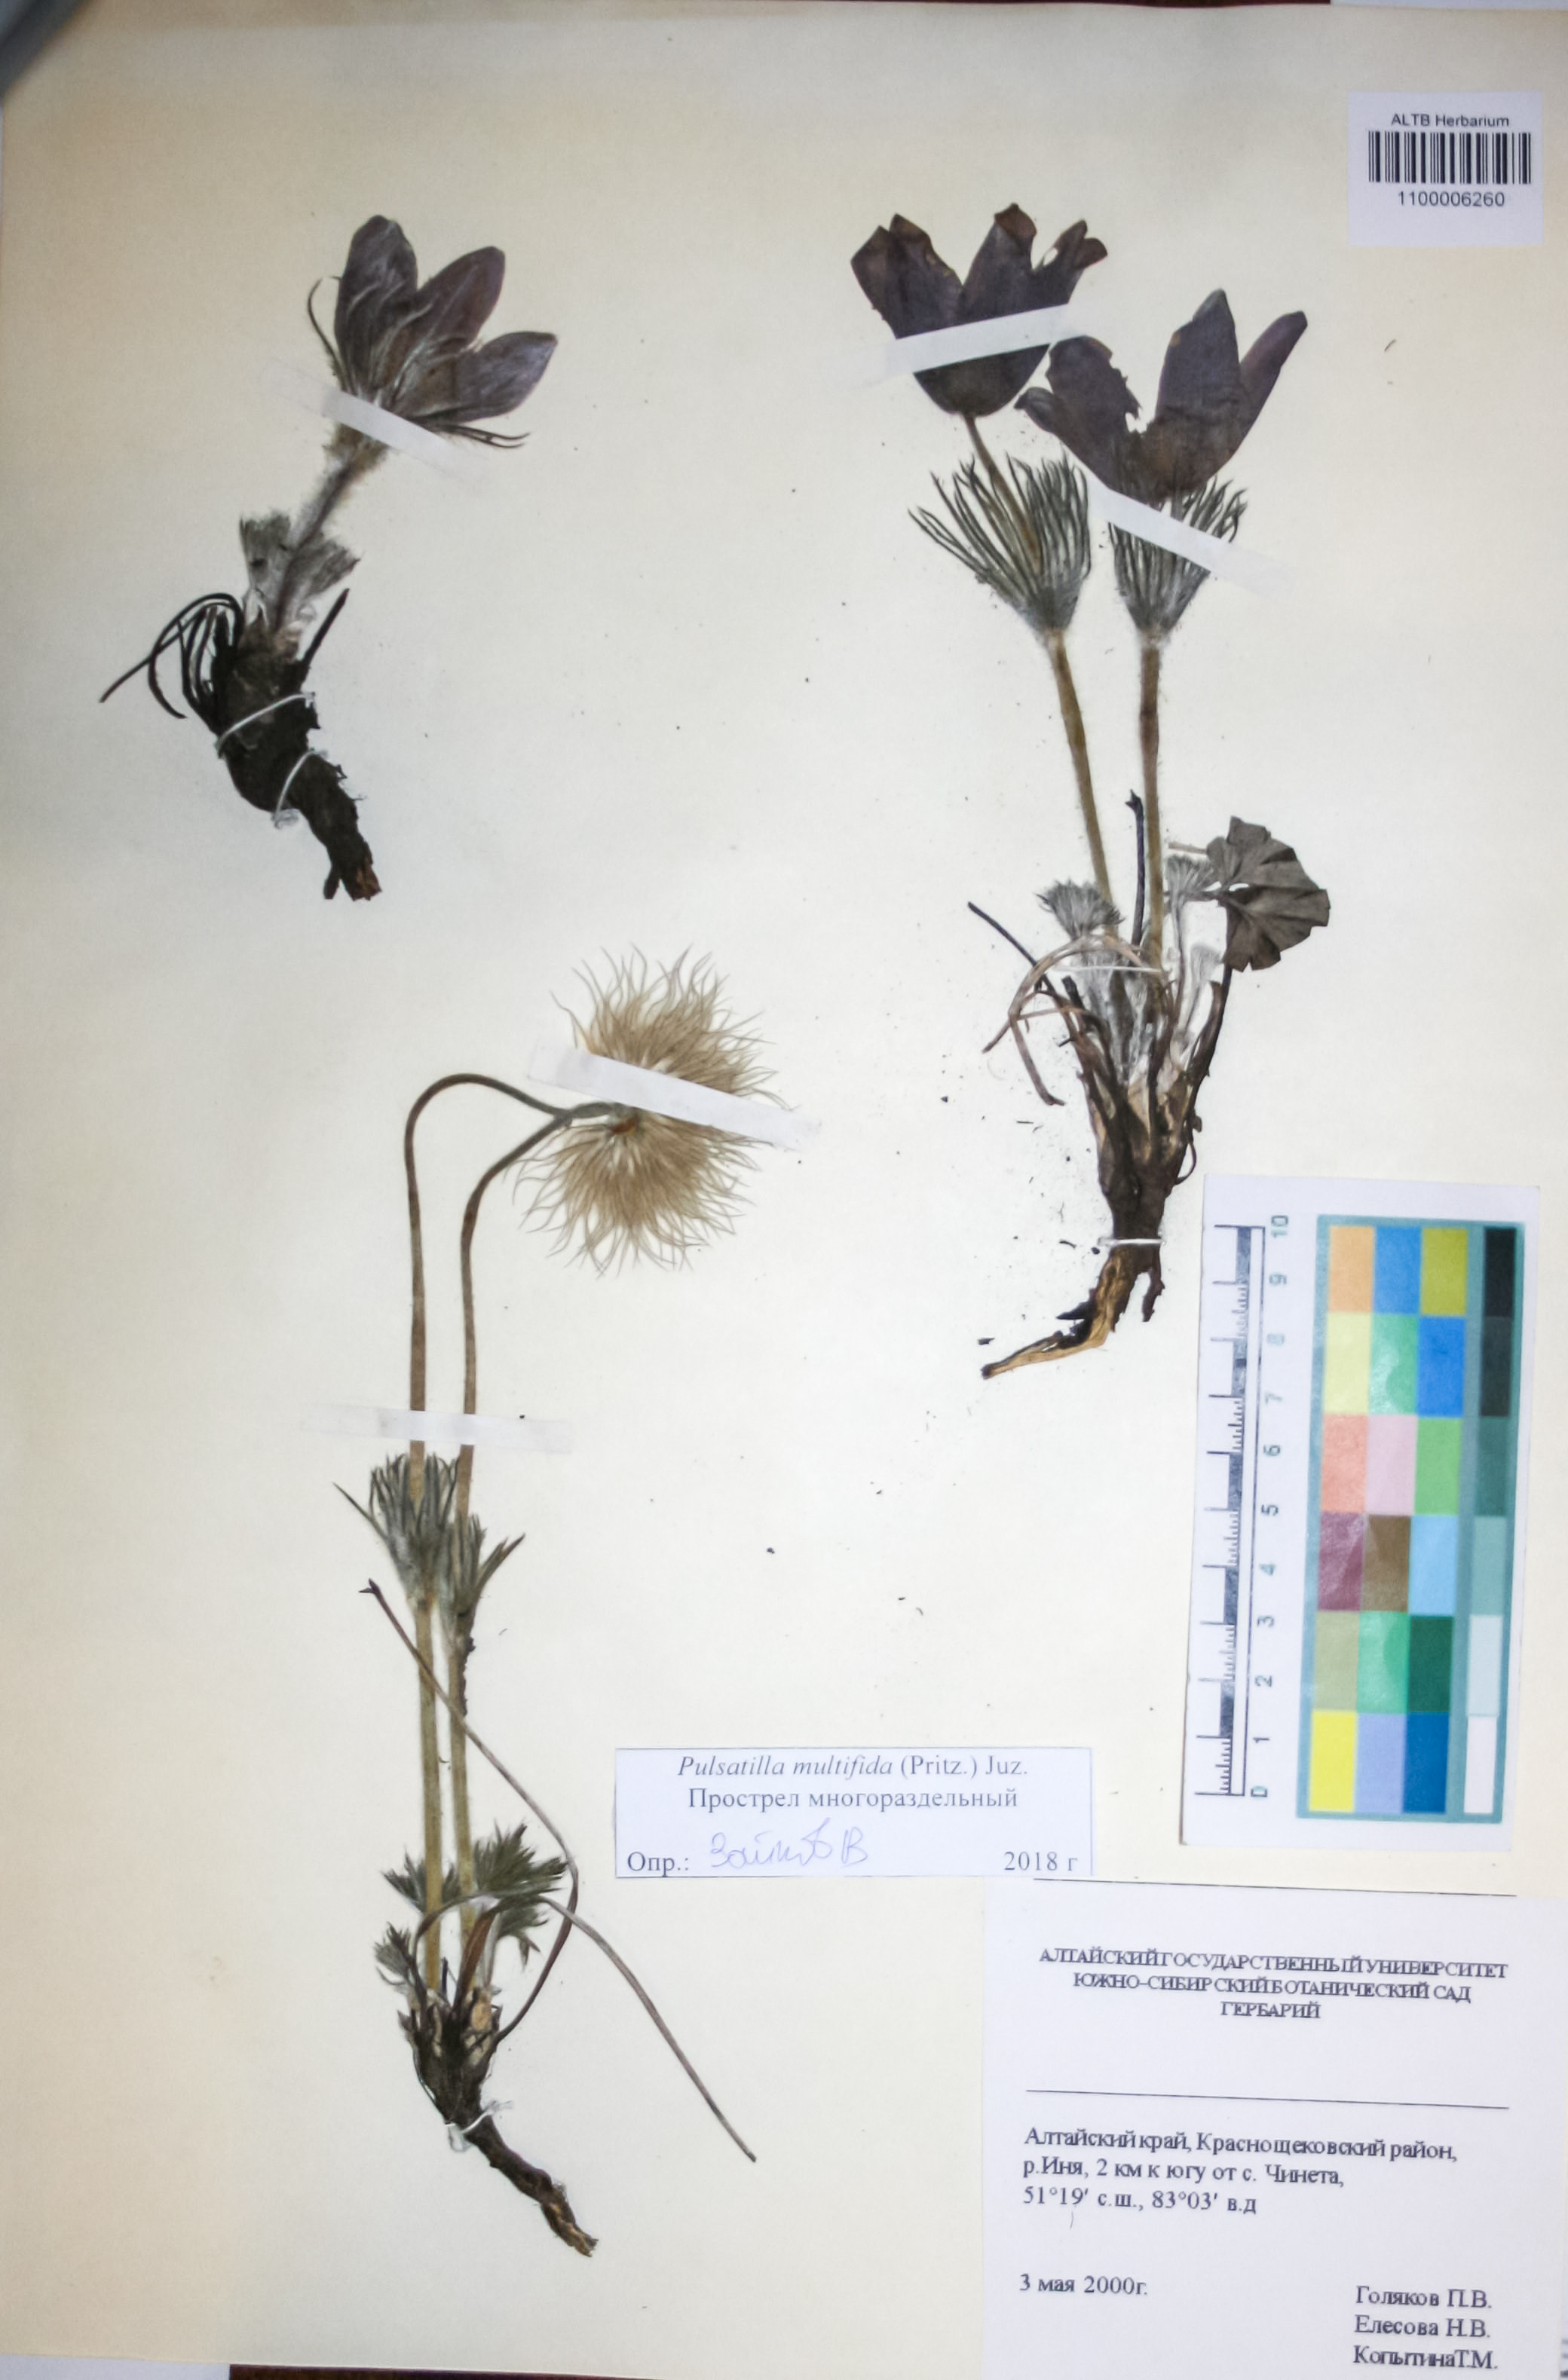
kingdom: Plantae
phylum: Tracheophyta
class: Magnoliopsida
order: Ranunculales
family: Ranunculaceae
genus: Pulsatilla
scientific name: Pulsatilla patens
